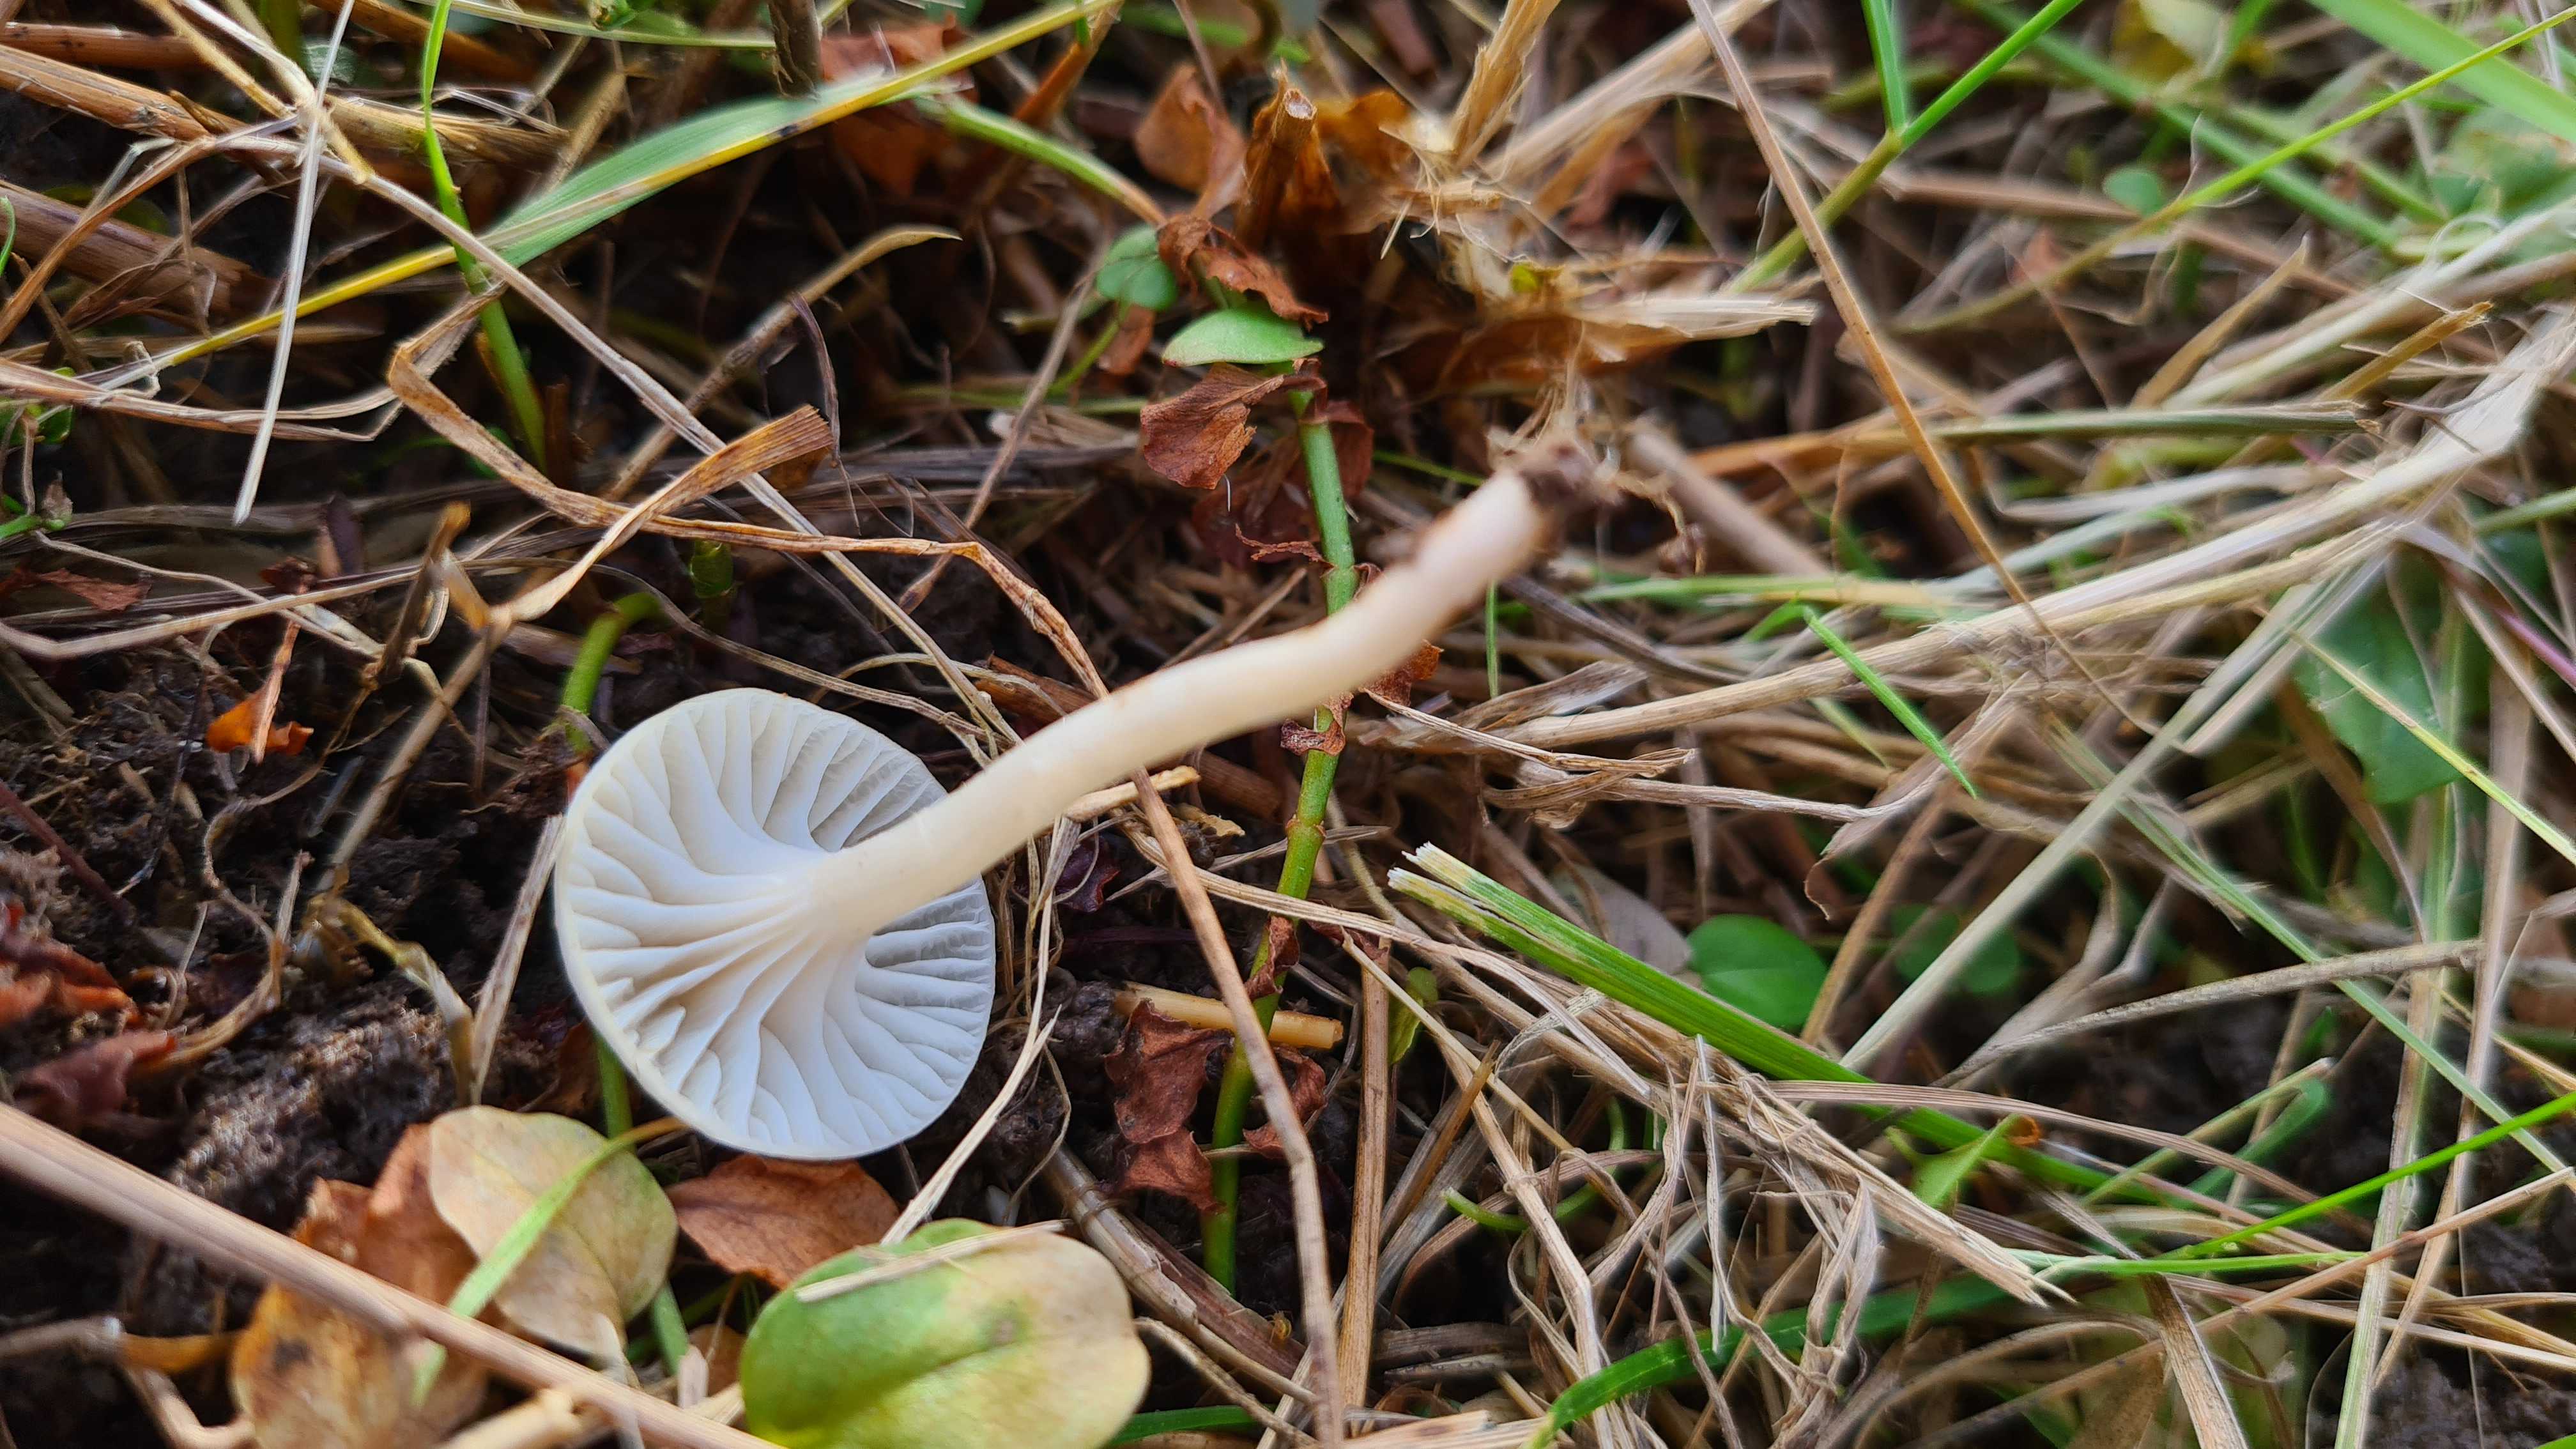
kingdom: Fungi
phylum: Basidiomycota
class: Agaricomycetes
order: Agaricales
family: Hygrophoraceae
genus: Cuphophyllus
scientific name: Cuphophyllus virgineus
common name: snehvid vokshat
